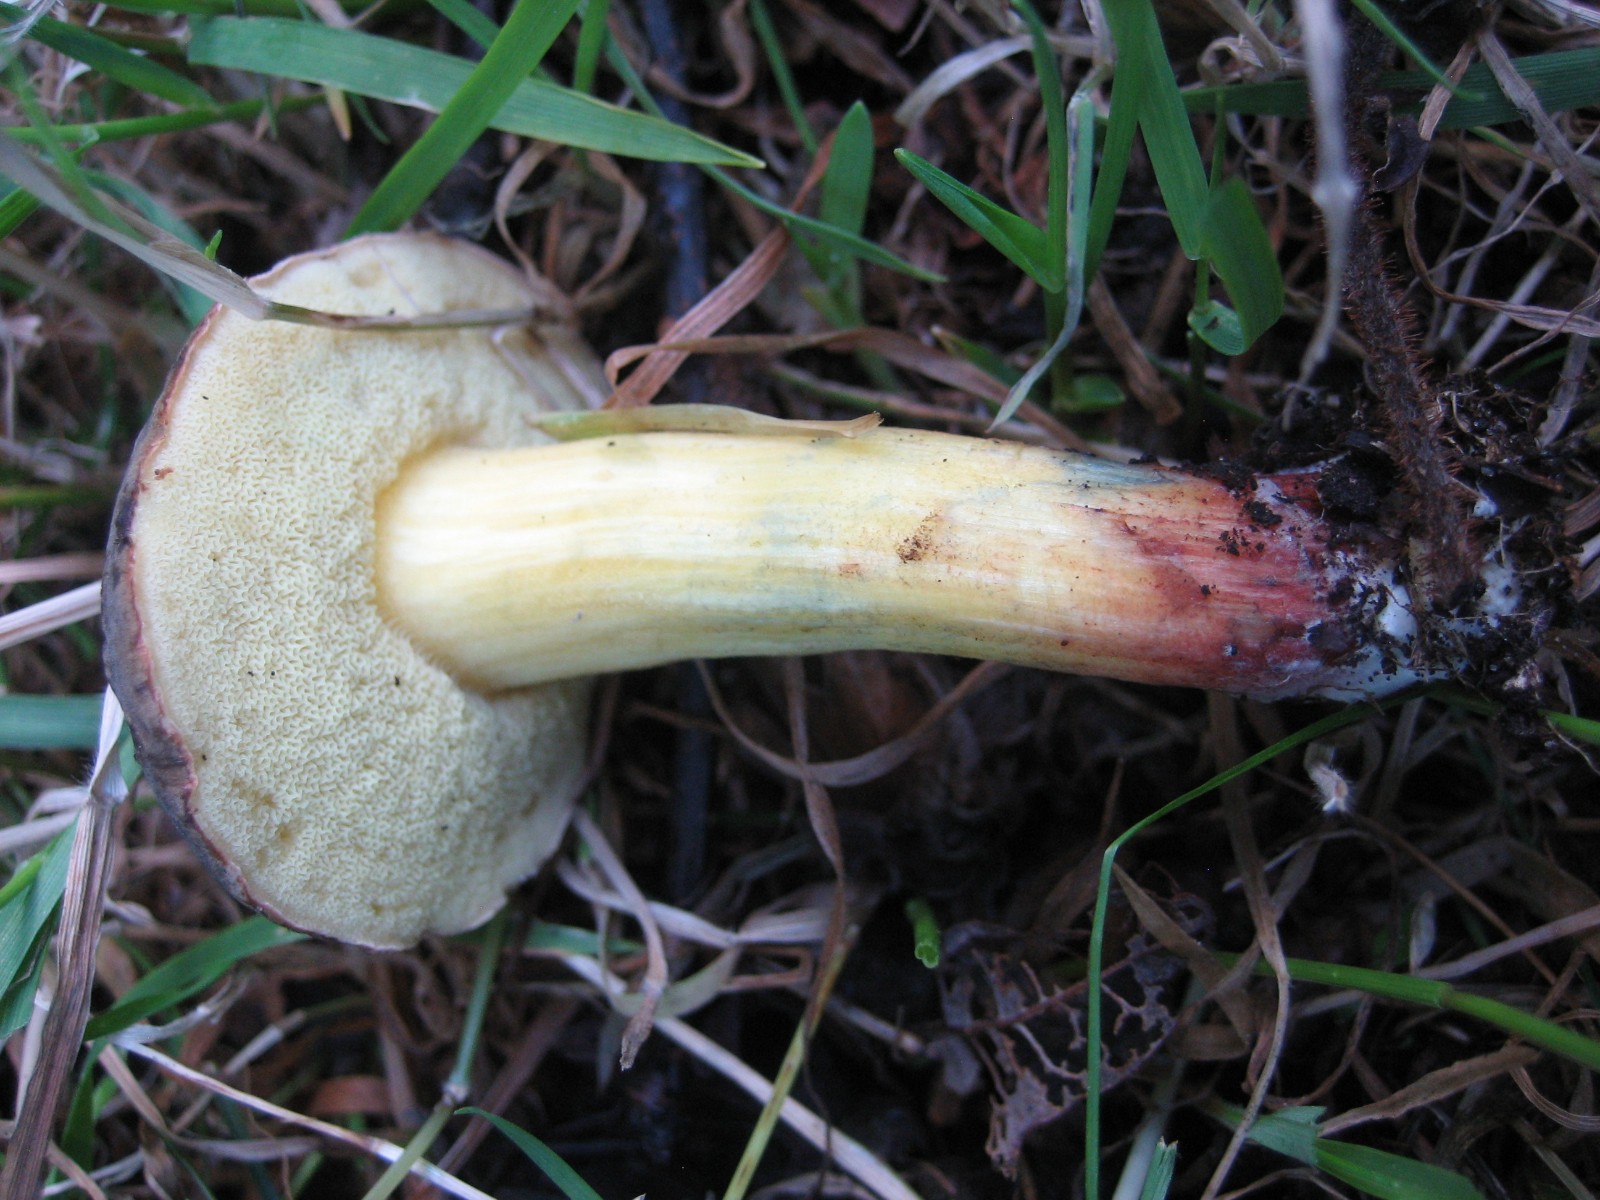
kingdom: Fungi
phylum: Basidiomycota
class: Agaricomycetes
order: Boletales
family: Boletaceae
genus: Xerocomellus
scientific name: Xerocomellus cisalpinus
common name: finsprukken rørhat
